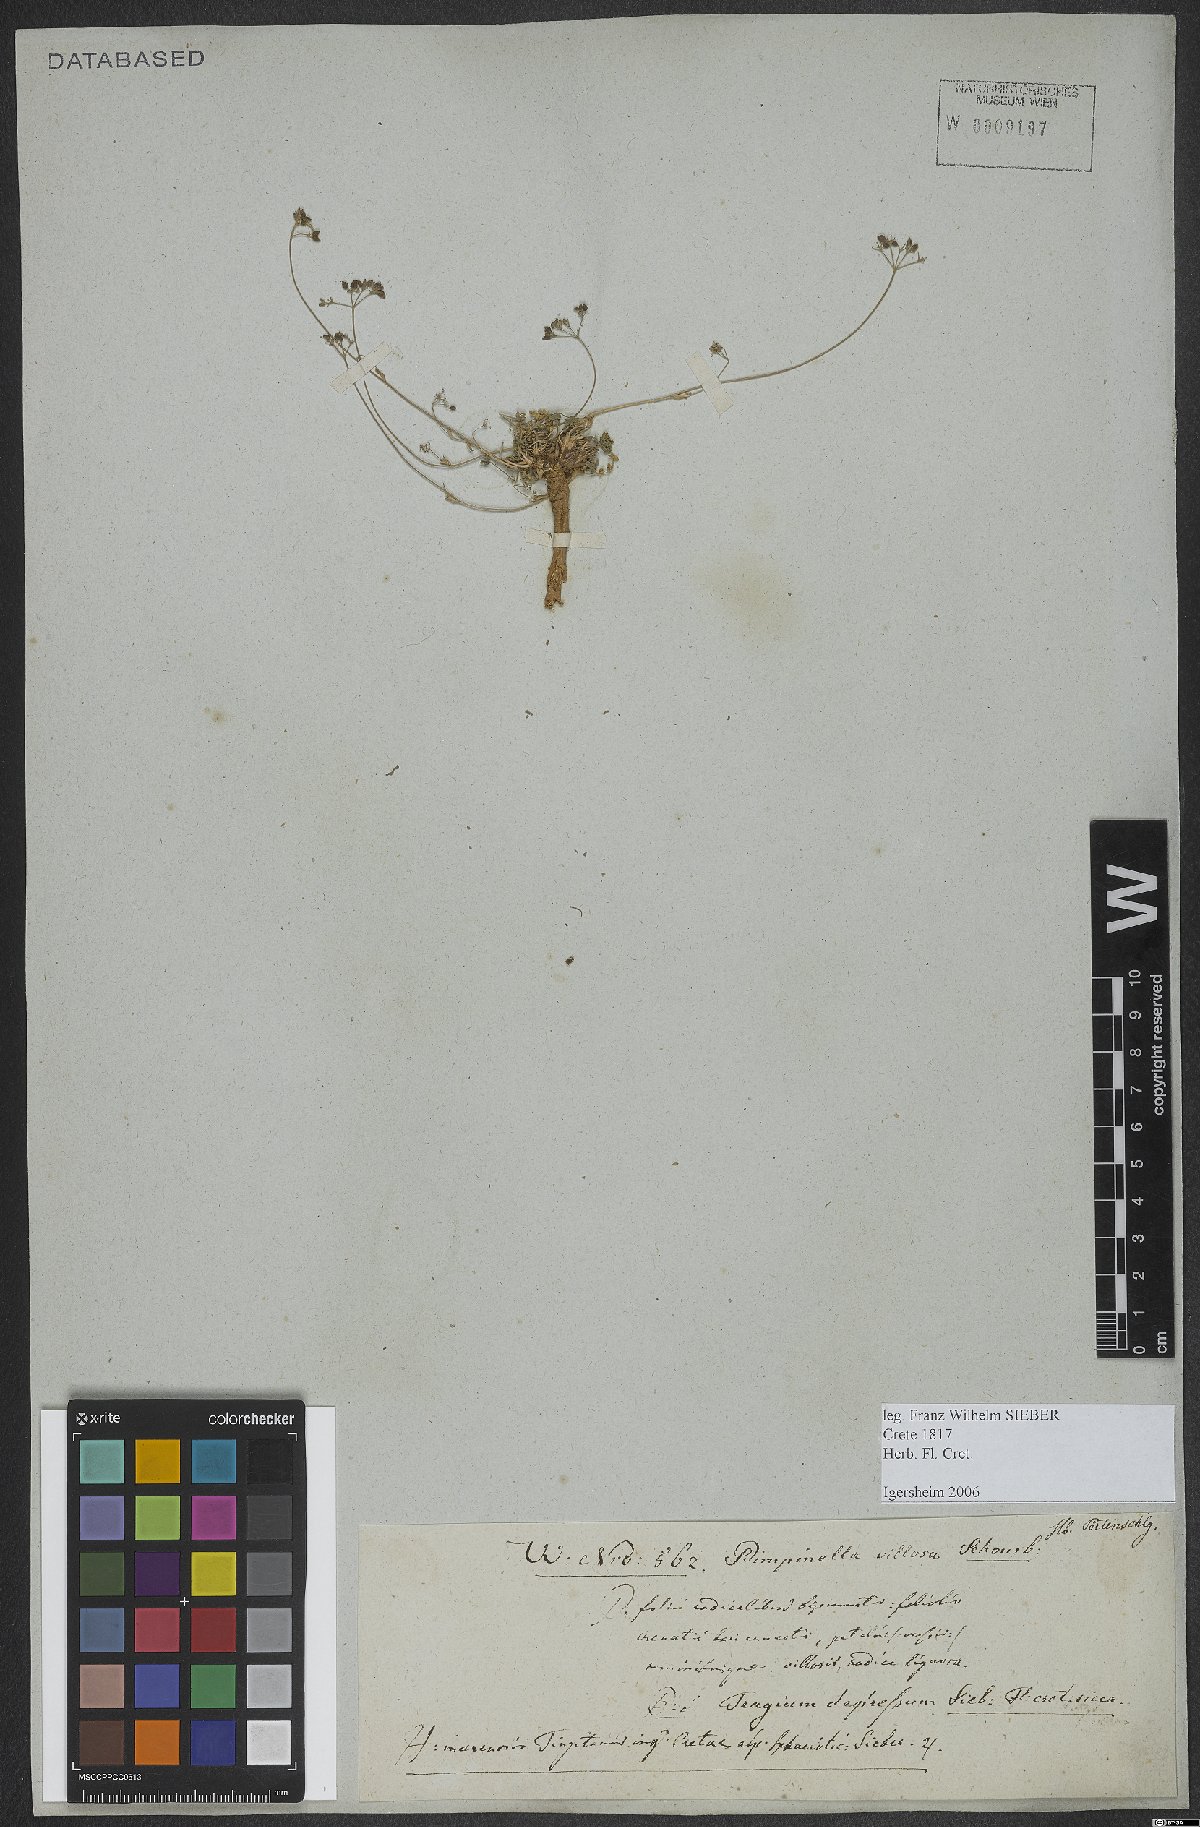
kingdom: Plantae
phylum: Tracheophyta
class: Magnoliopsida
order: Apiales
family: Apiaceae
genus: Pimpinella
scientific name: Pimpinella tragium
